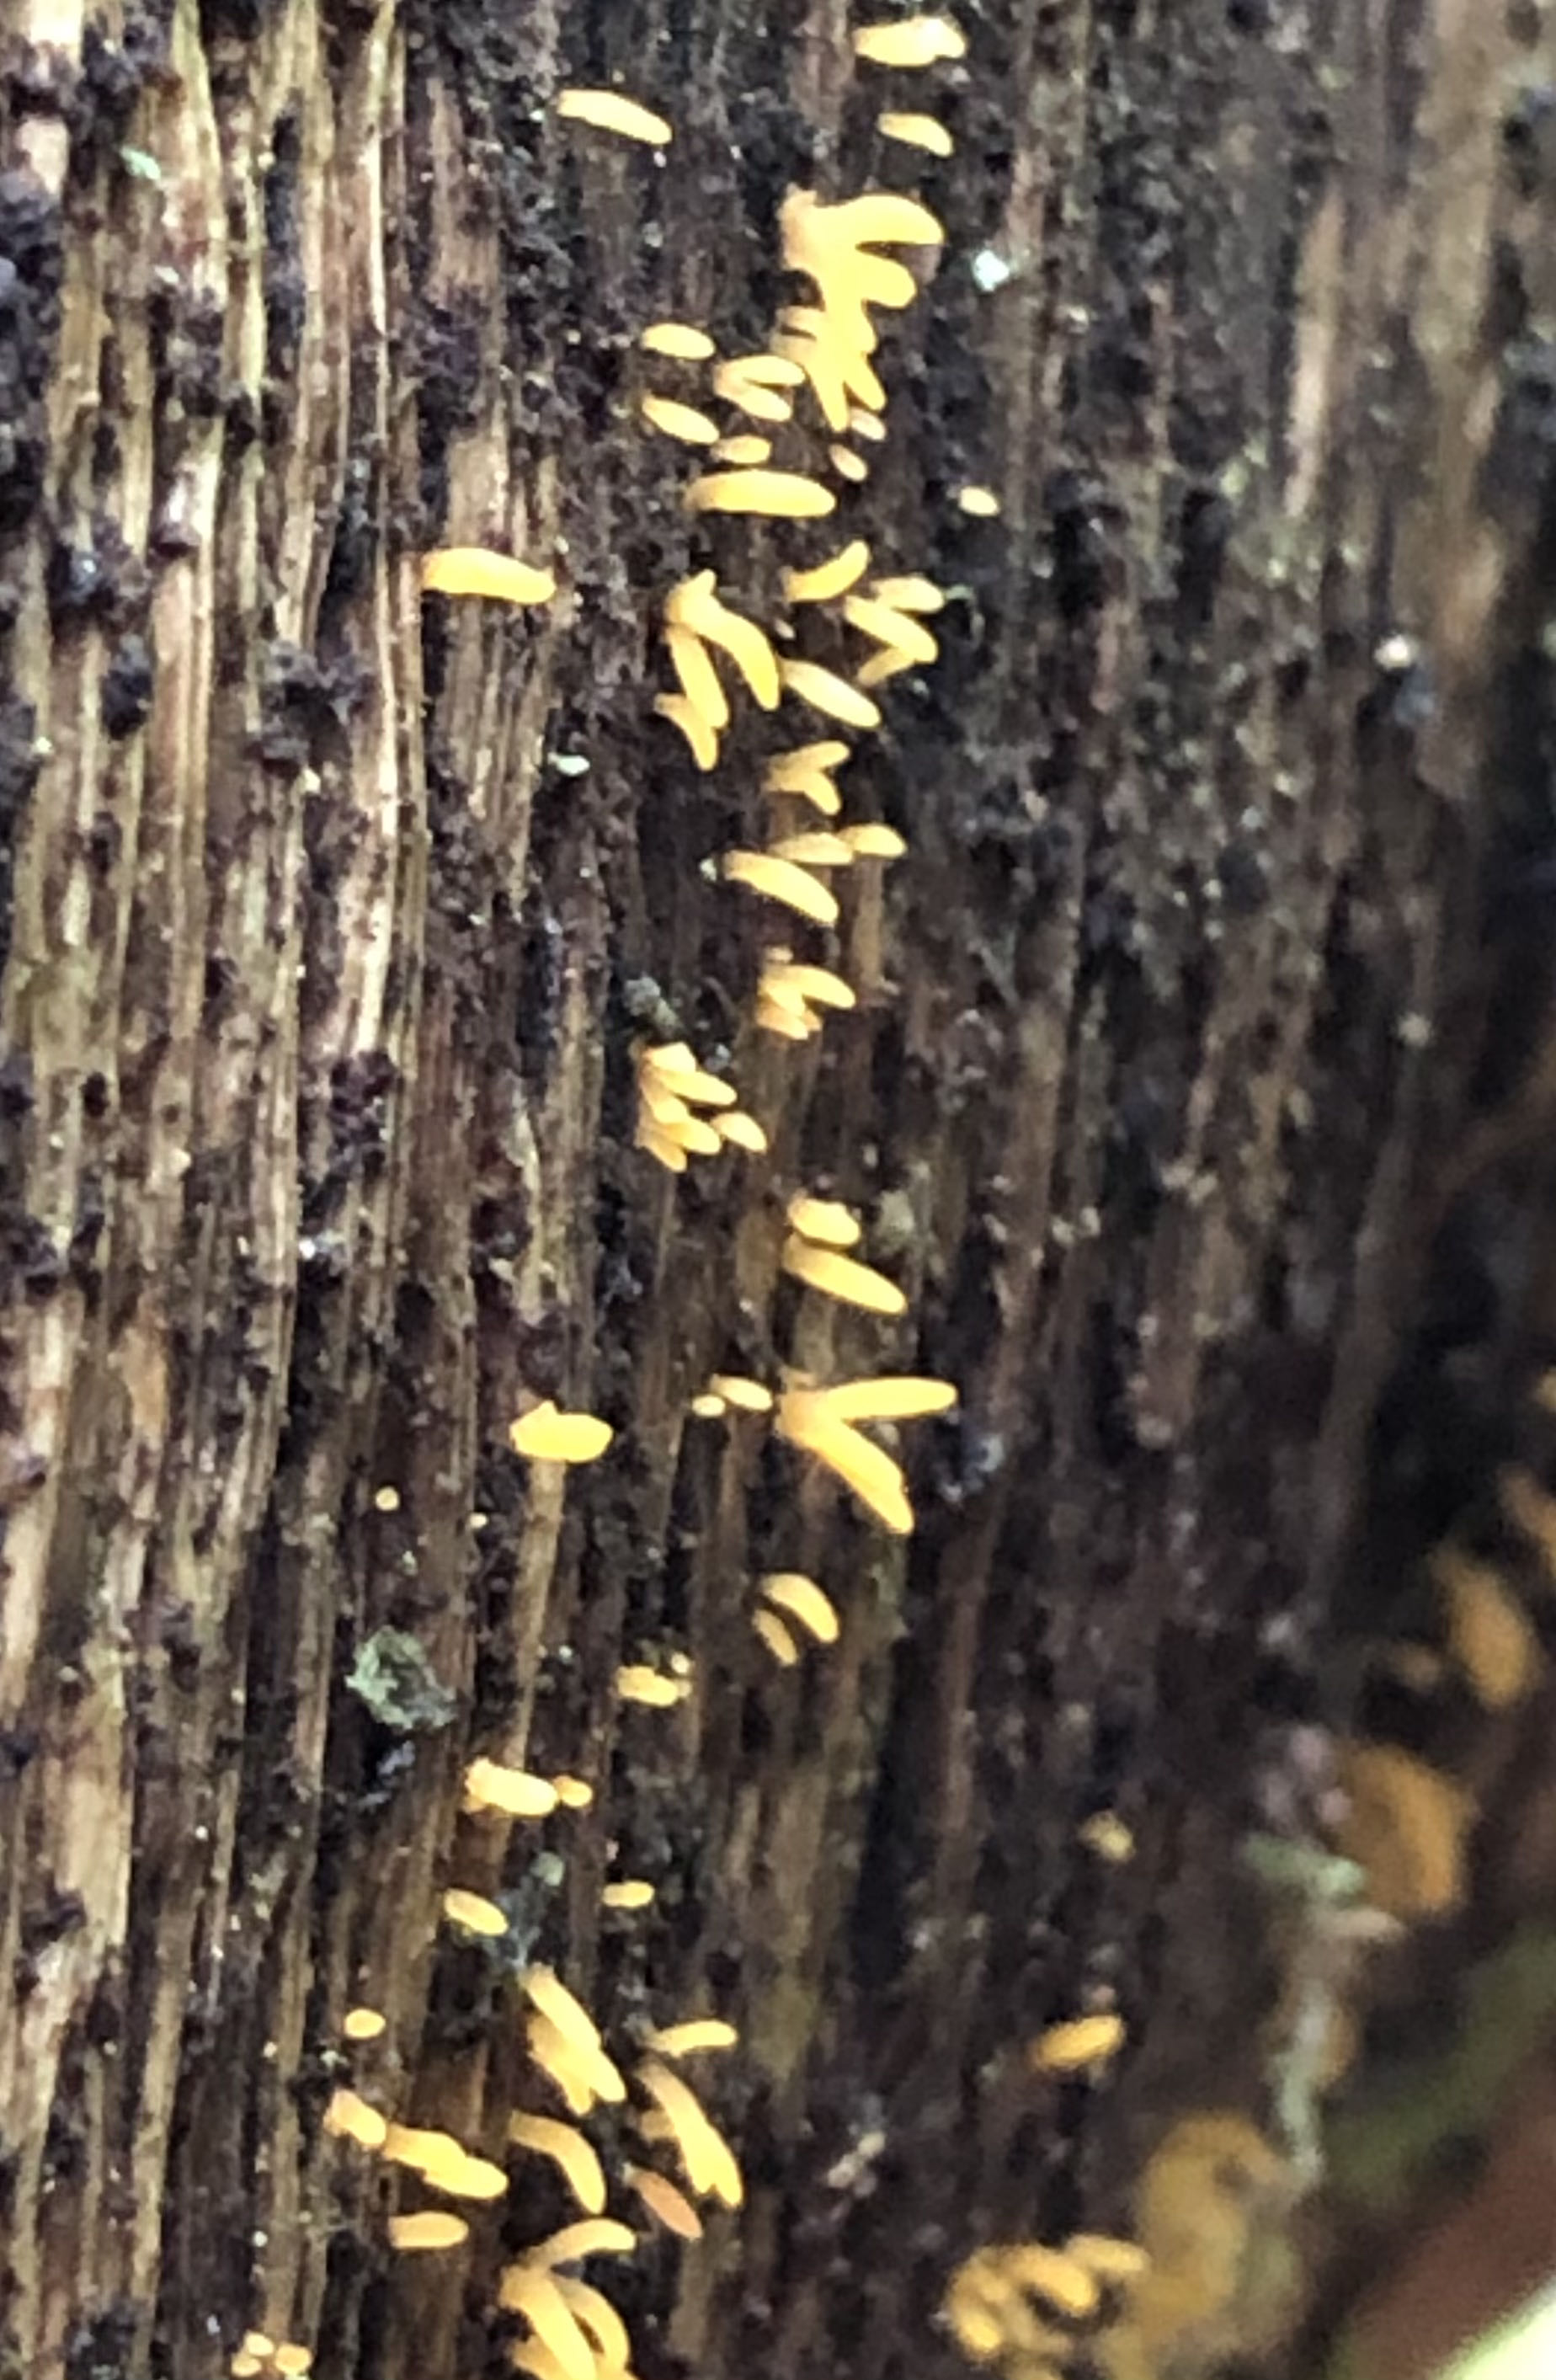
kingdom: Fungi
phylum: Basidiomycota
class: Dacrymycetes
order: Dacrymycetales
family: Dacrymycetaceae
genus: Calocera
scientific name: Calocera cornea
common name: liden guldgaffel
